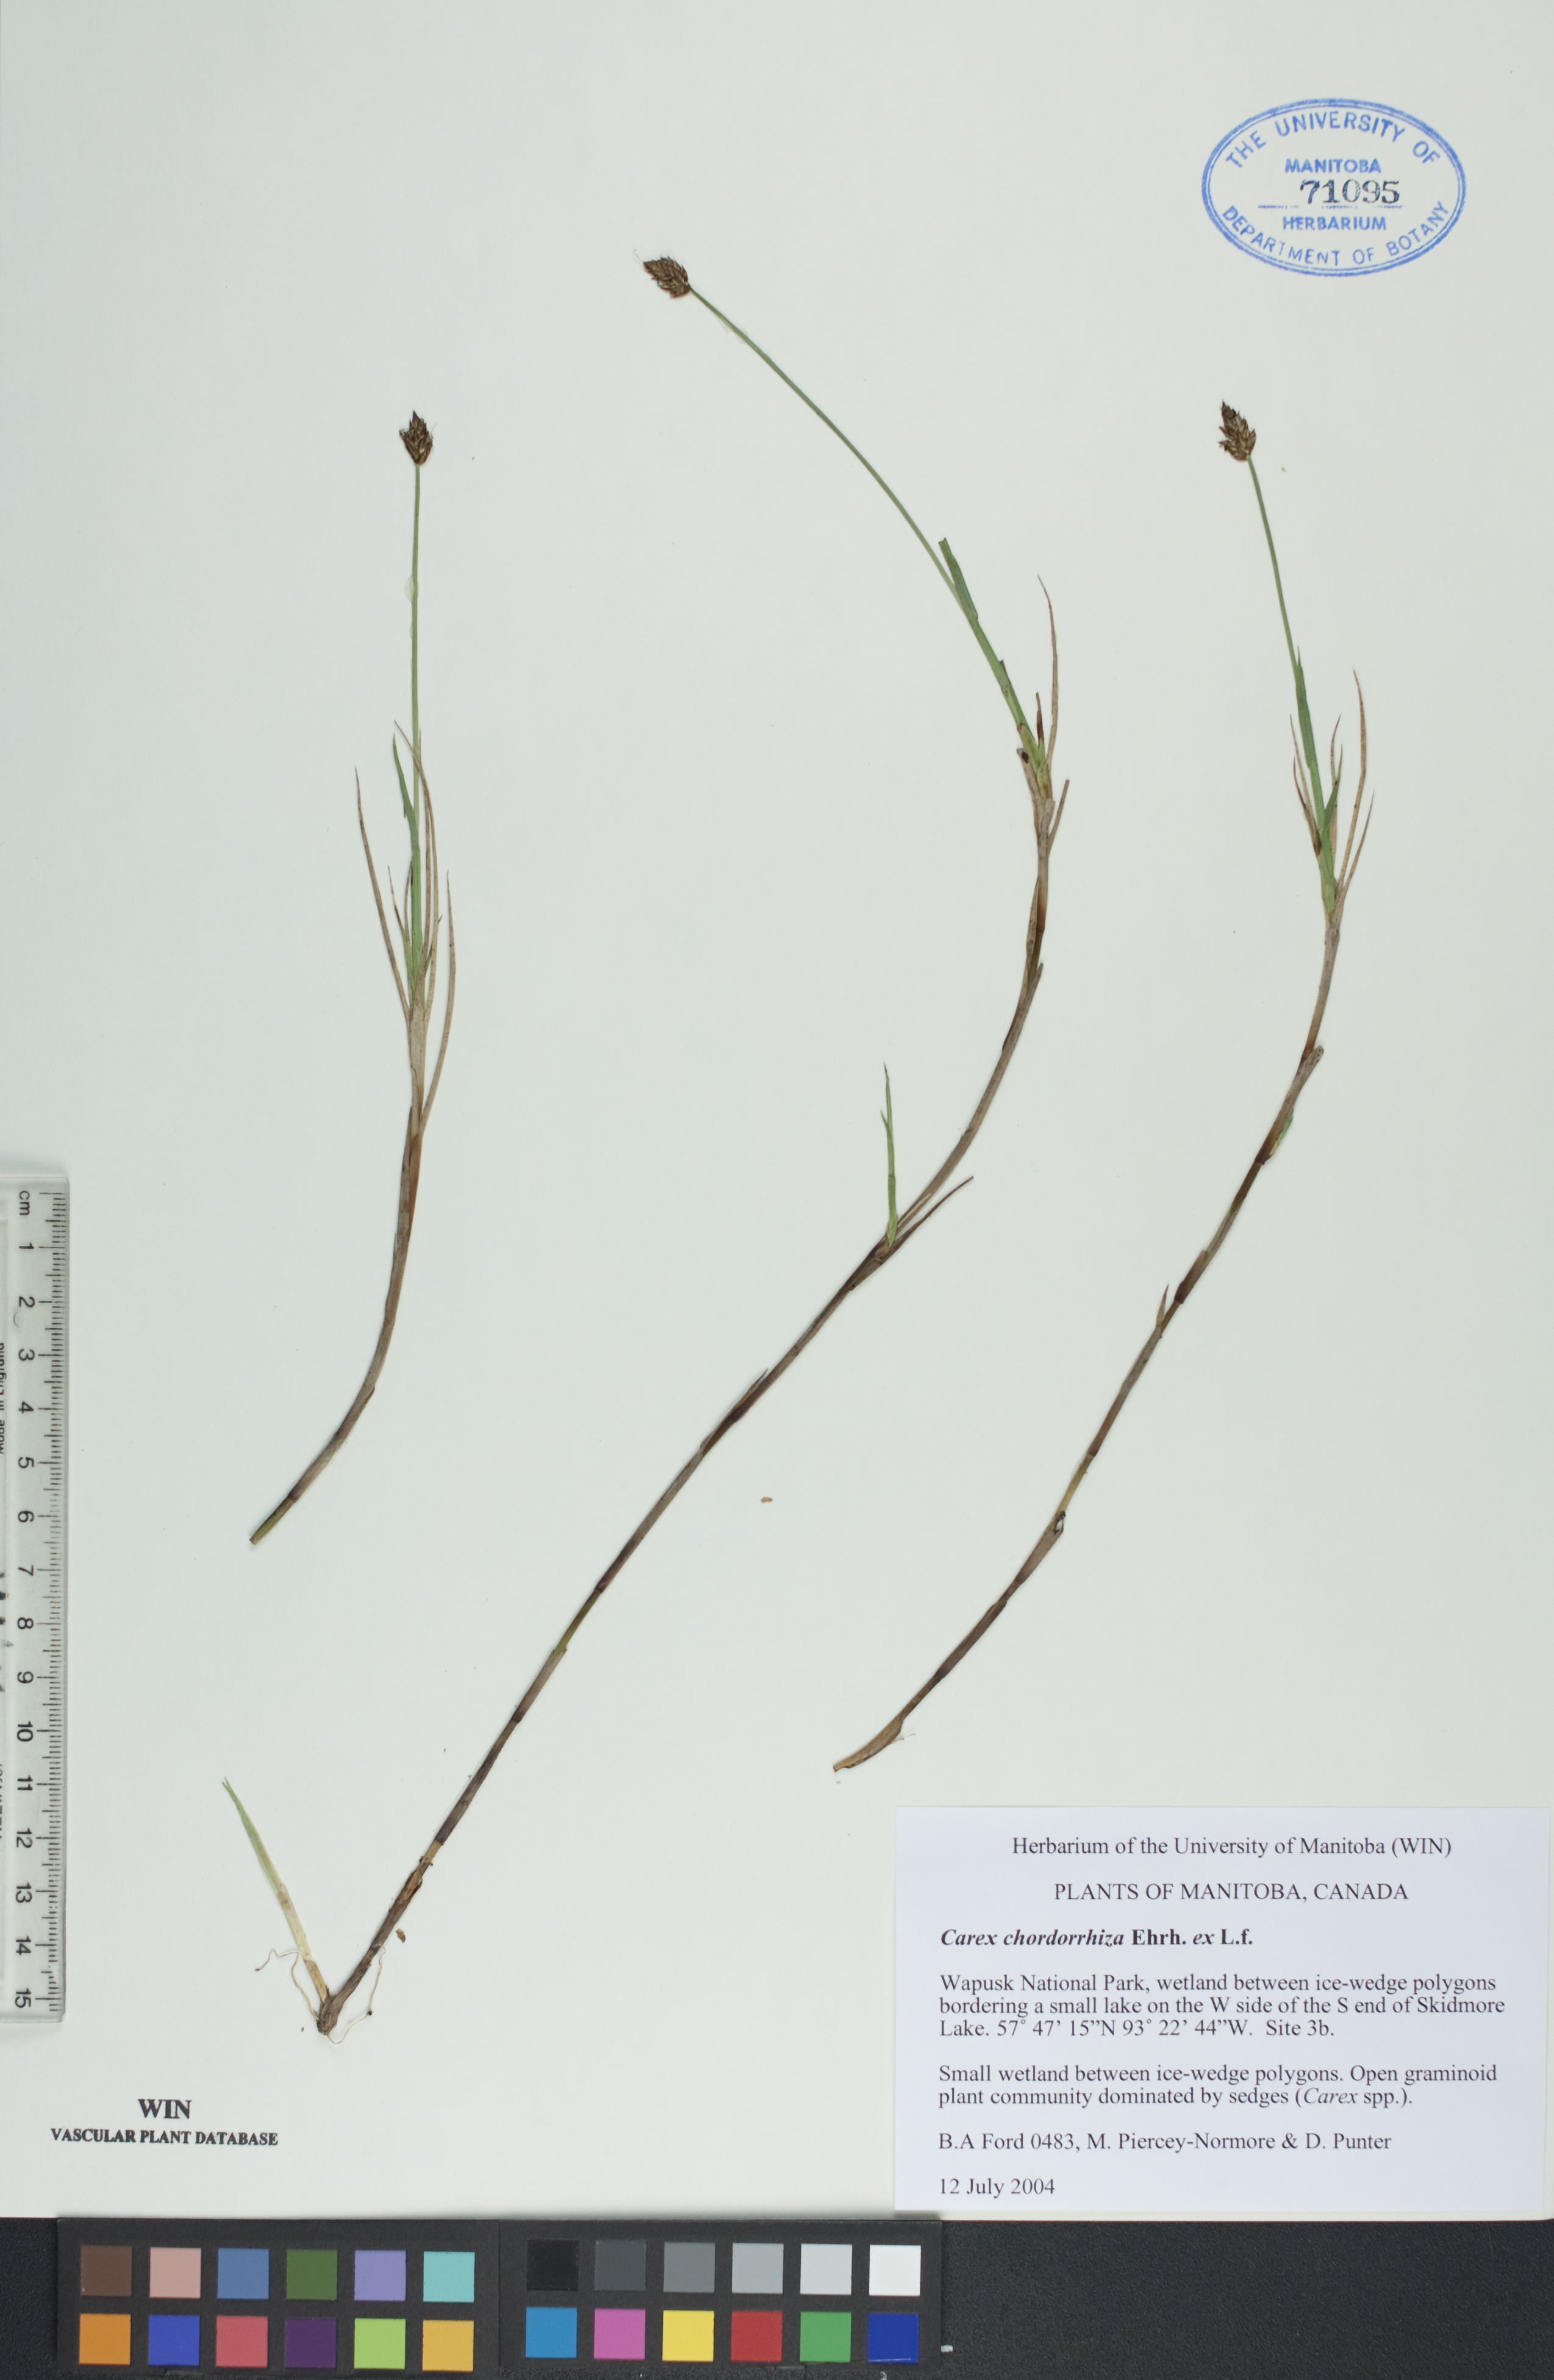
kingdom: Plantae
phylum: Tracheophyta
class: Liliopsida
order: Poales
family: Cyperaceae
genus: Carex
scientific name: Carex chordorrhiza
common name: String sedge
